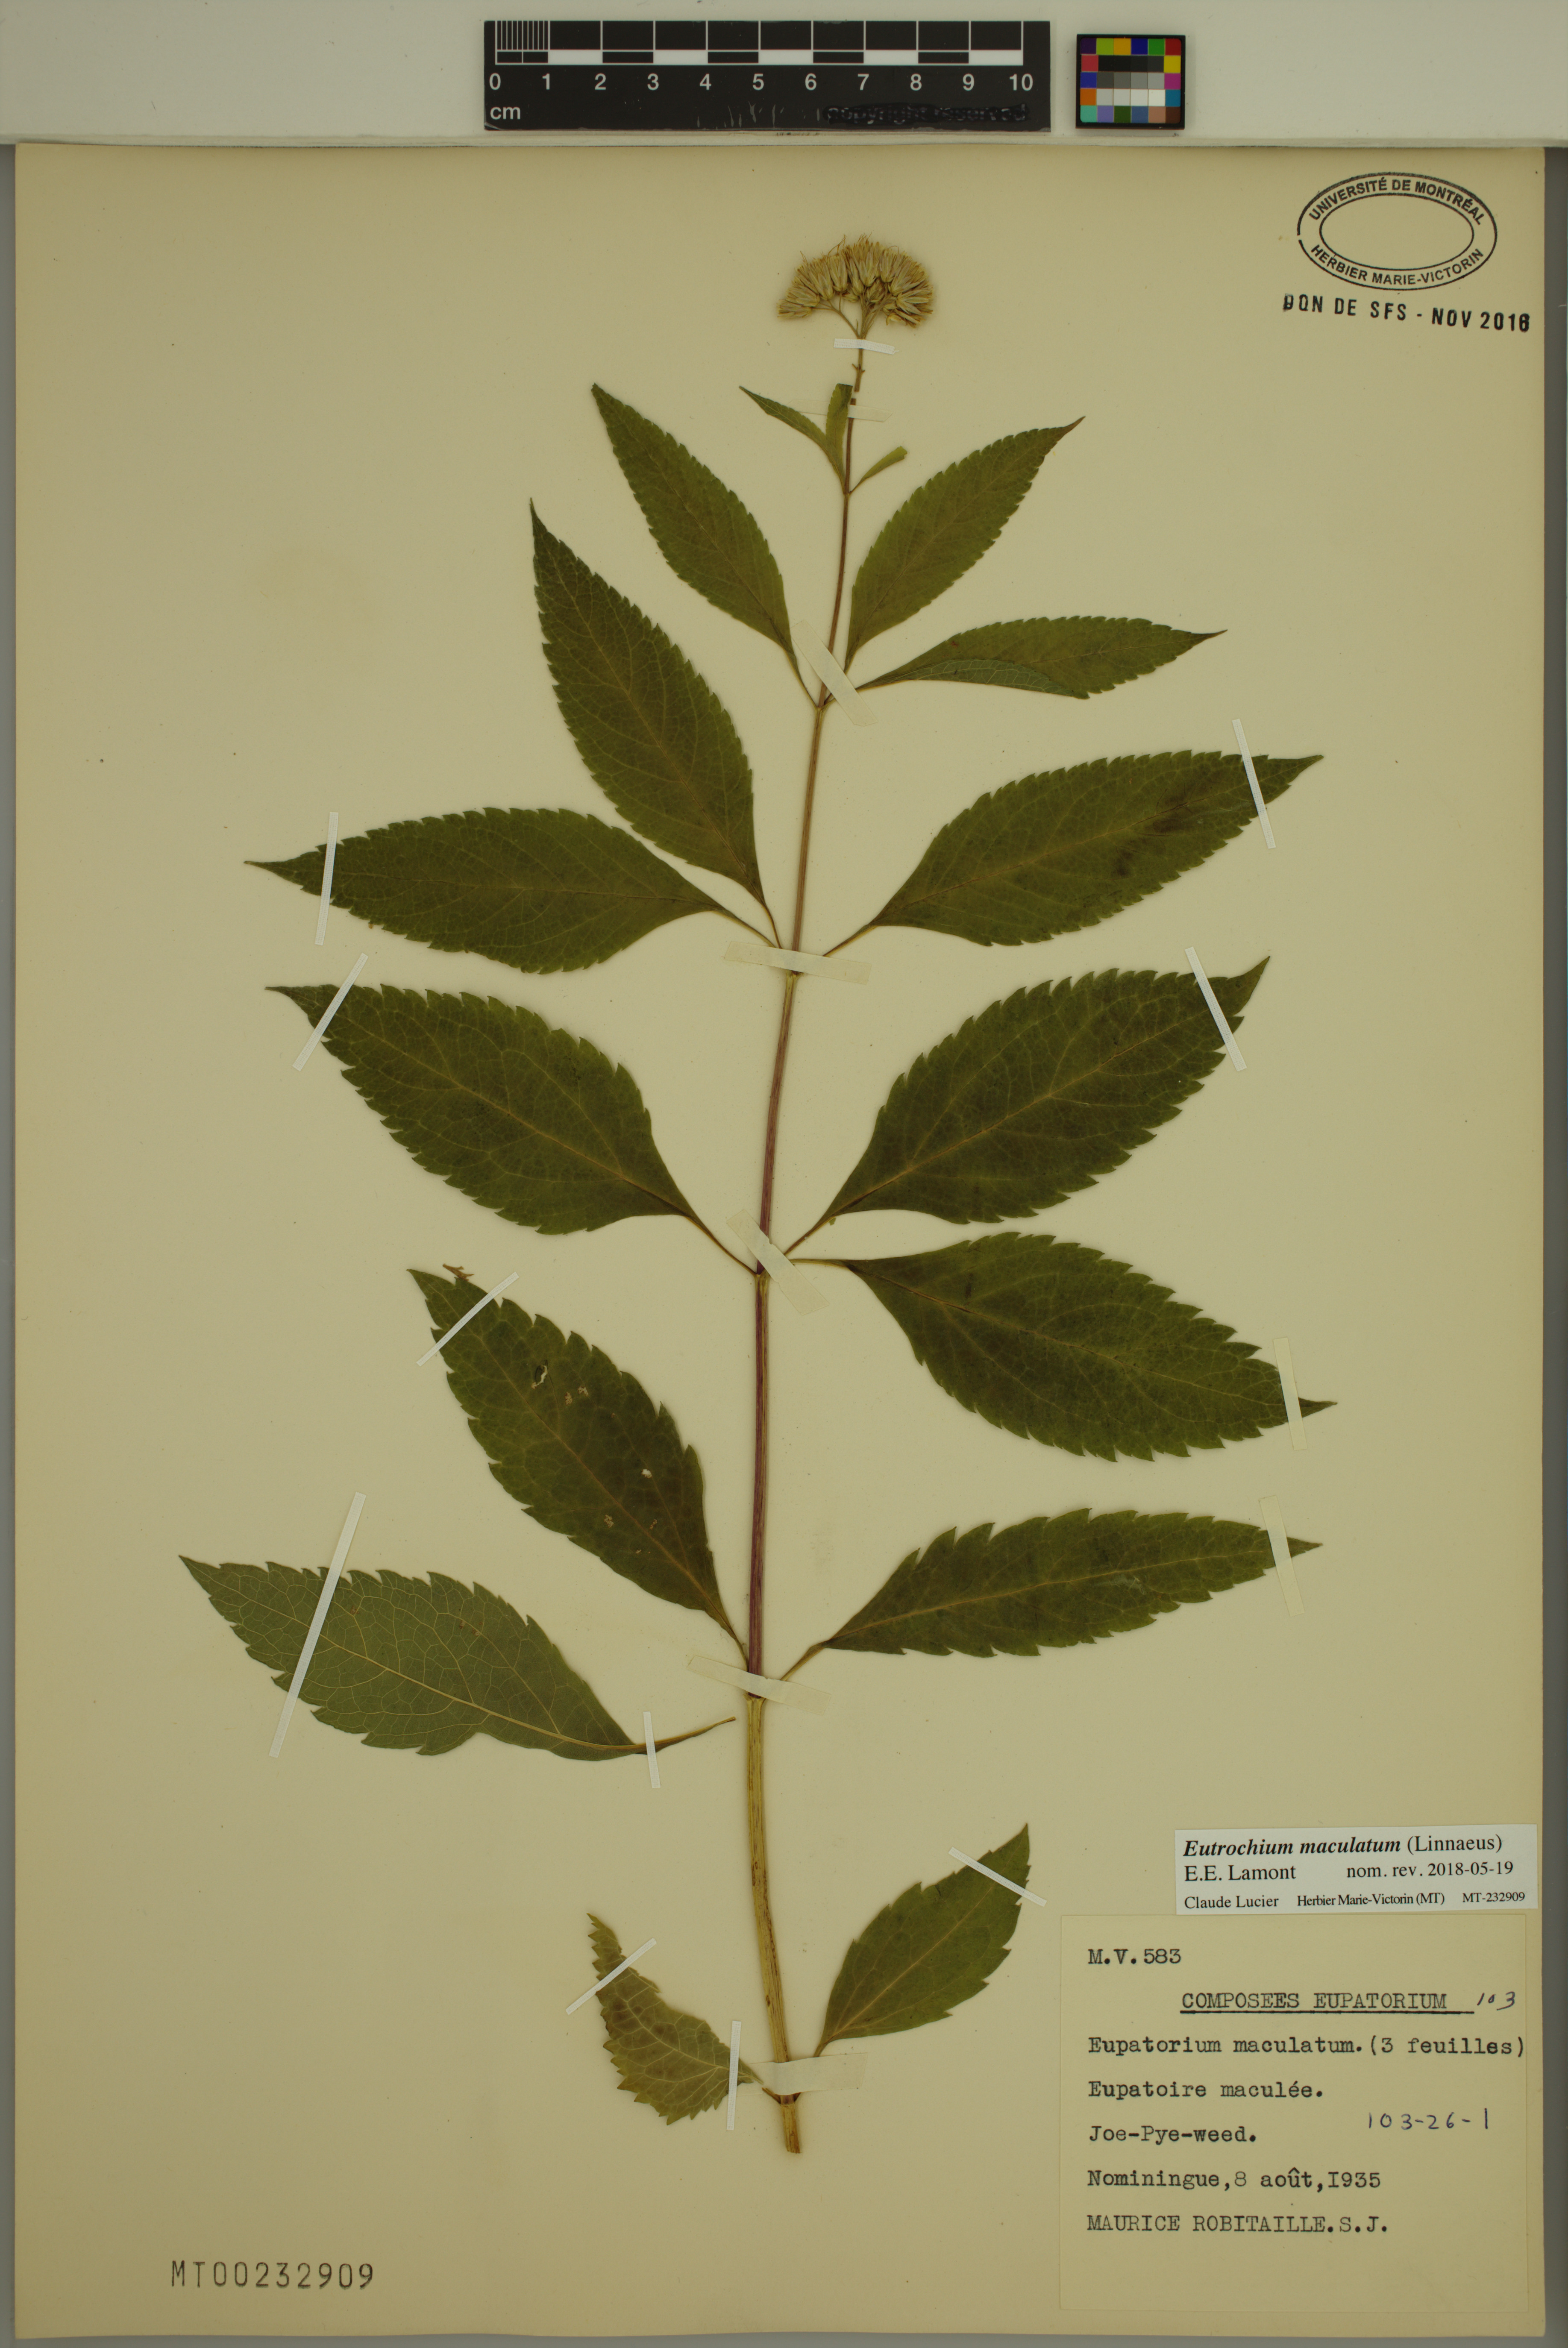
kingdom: Plantae
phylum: Tracheophyta
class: Magnoliopsida
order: Asterales
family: Asteraceae
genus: Eutrochium
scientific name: Eutrochium maculatum
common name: Spotted joe pye weed
